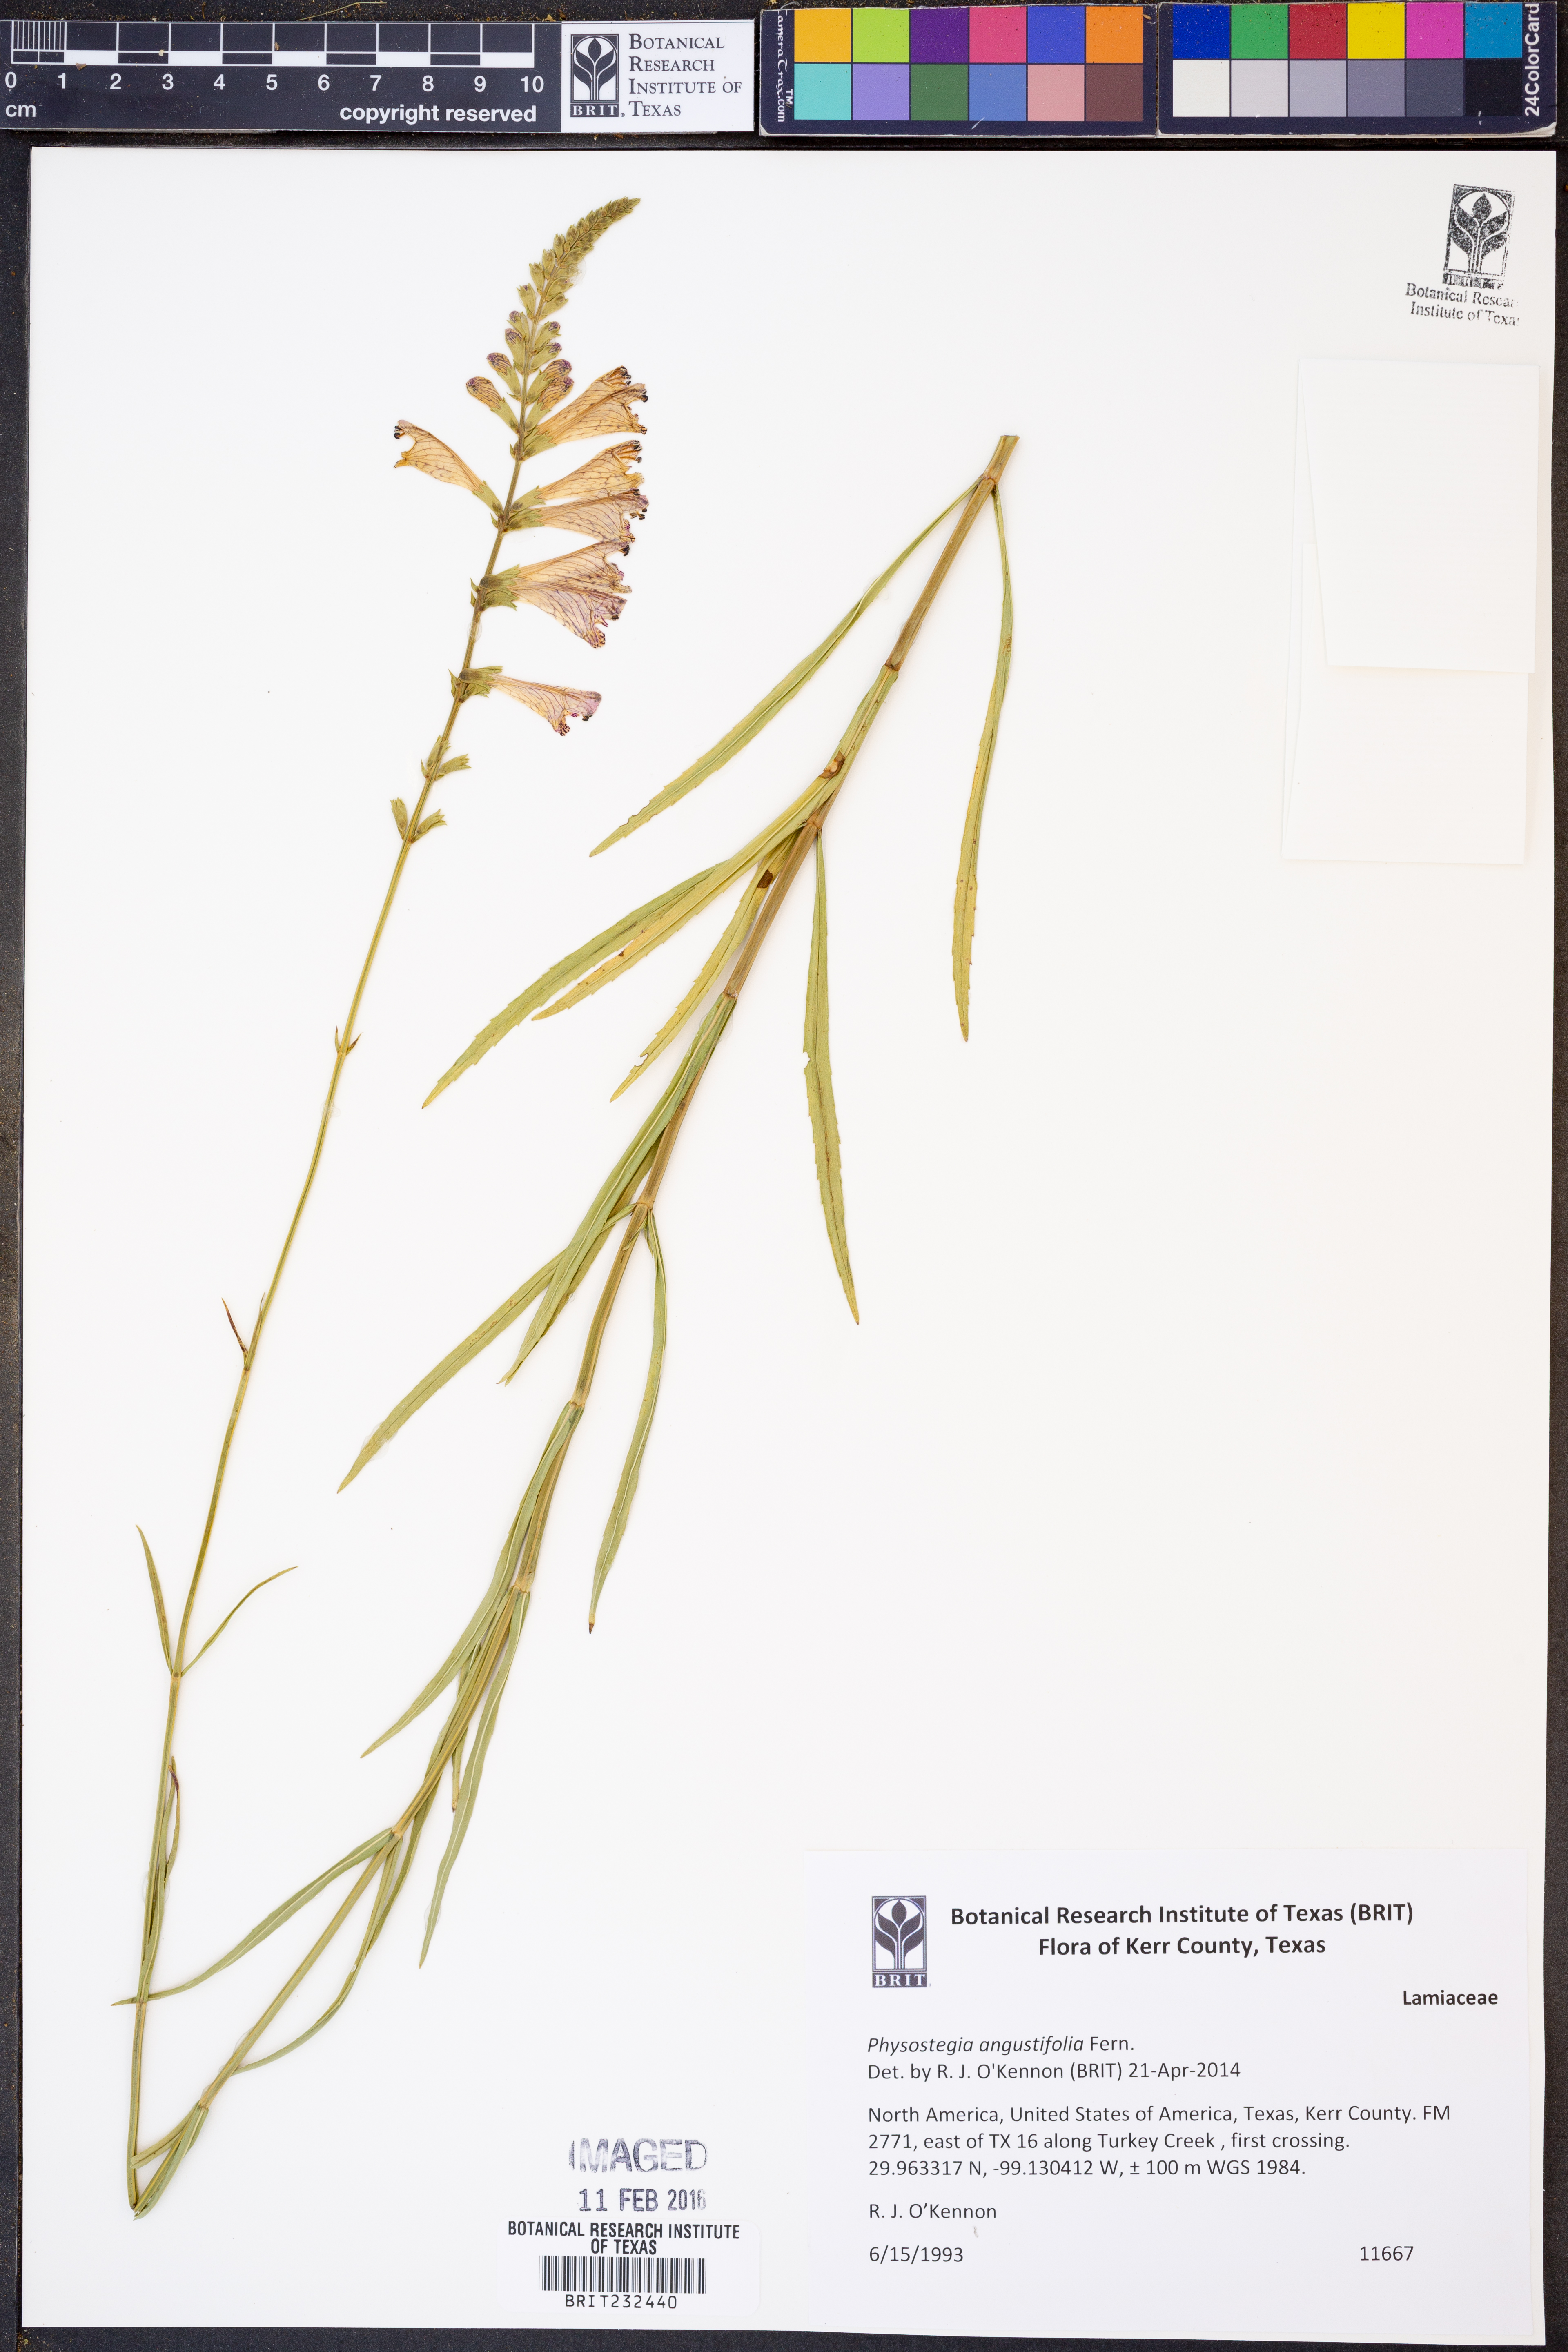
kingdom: Plantae
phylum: Tracheophyta
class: Magnoliopsida
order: Lamiales
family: Lamiaceae
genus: Physostegia
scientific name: Physostegia angustifolia
